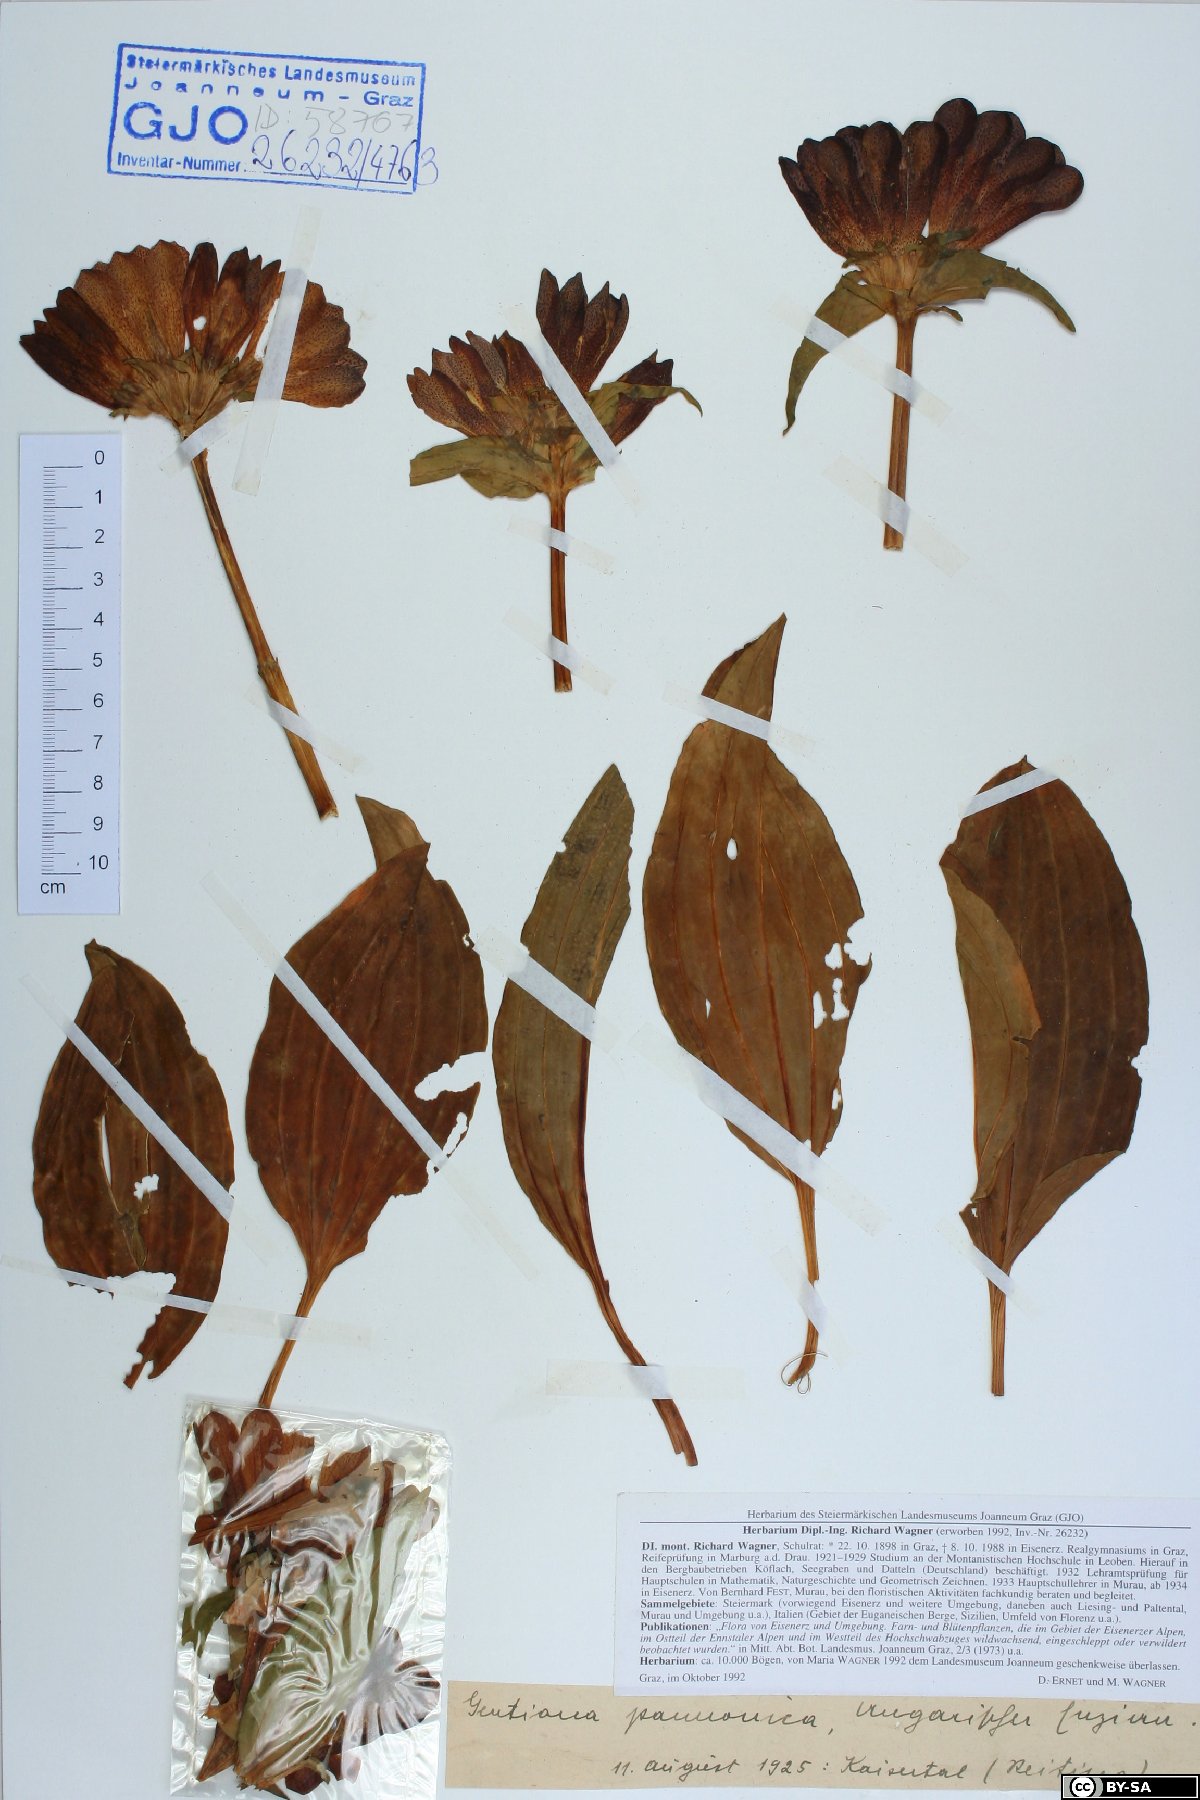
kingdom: Plantae
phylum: Tracheophyta
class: Magnoliopsida
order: Gentianales
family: Gentianaceae
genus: Gentiana
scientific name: Gentiana pannonica
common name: Hungarian gentian
